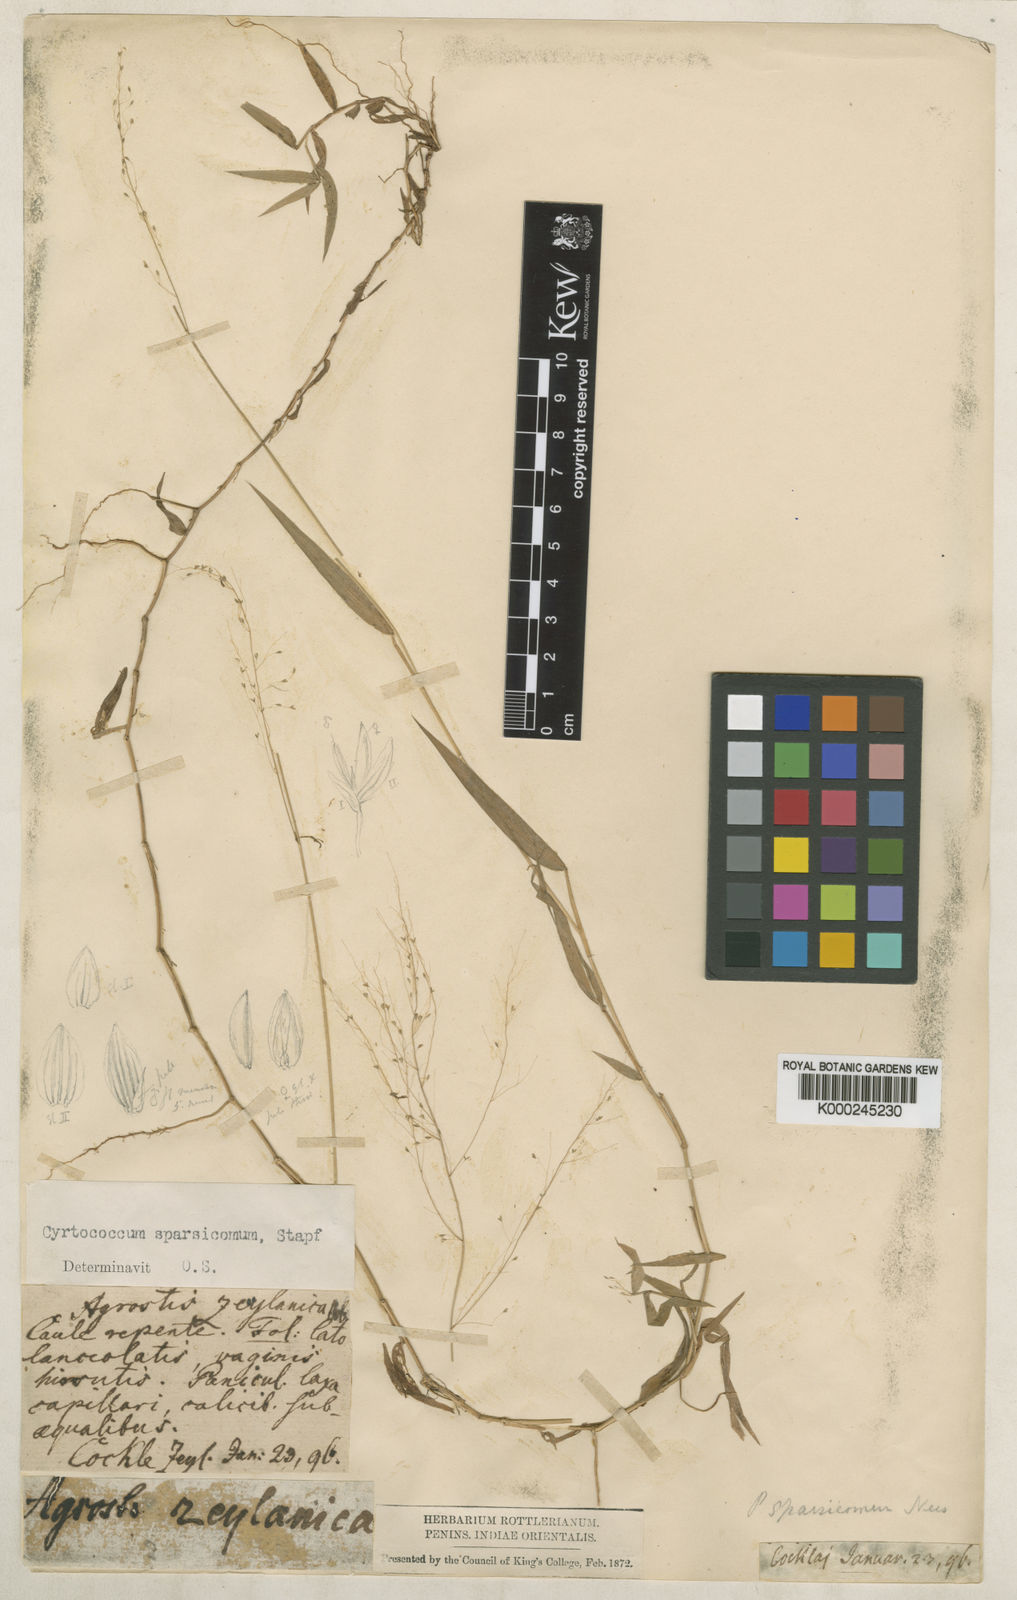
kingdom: Plantae
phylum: Tracheophyta
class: Liliopsida
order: Poales
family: Poaceae
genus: Panicum
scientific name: Panicum sparsicomum
